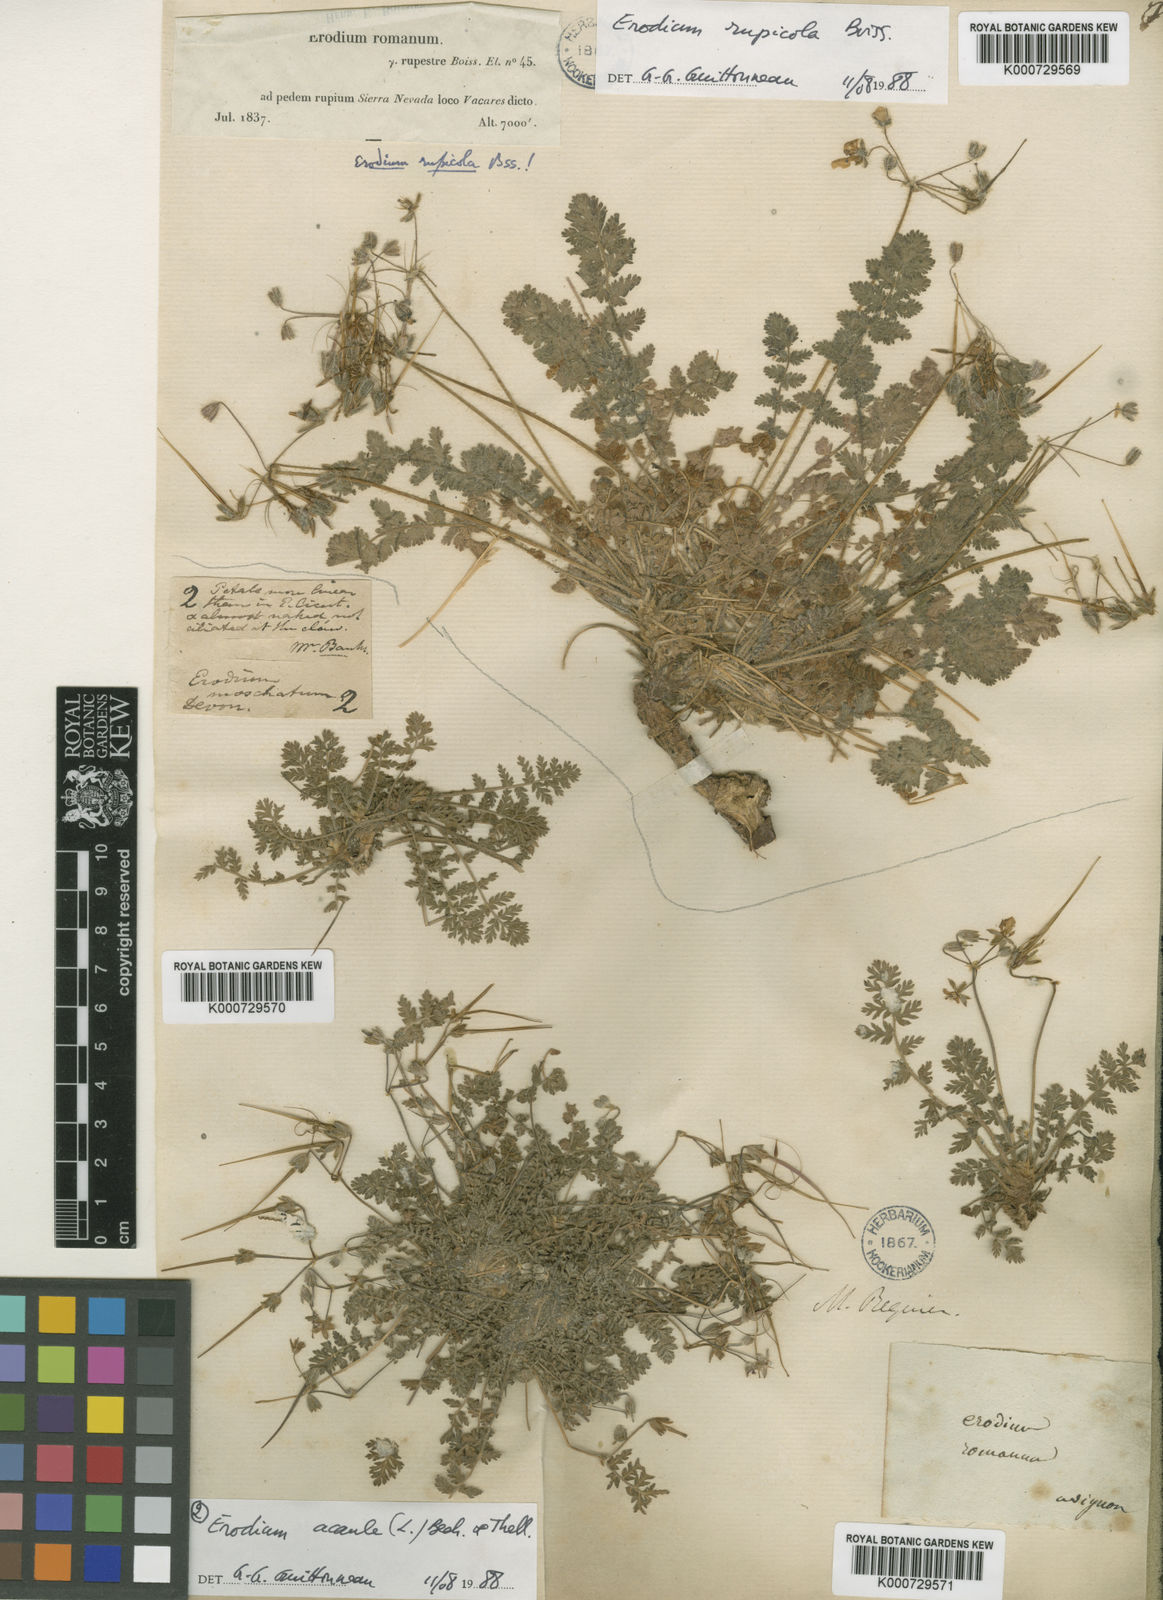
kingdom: Plantae
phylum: Tracheophyta
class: Magnoliopsida
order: Geraniales
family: Geraniaceae
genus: Erodium
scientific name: Erodium astragaloides
